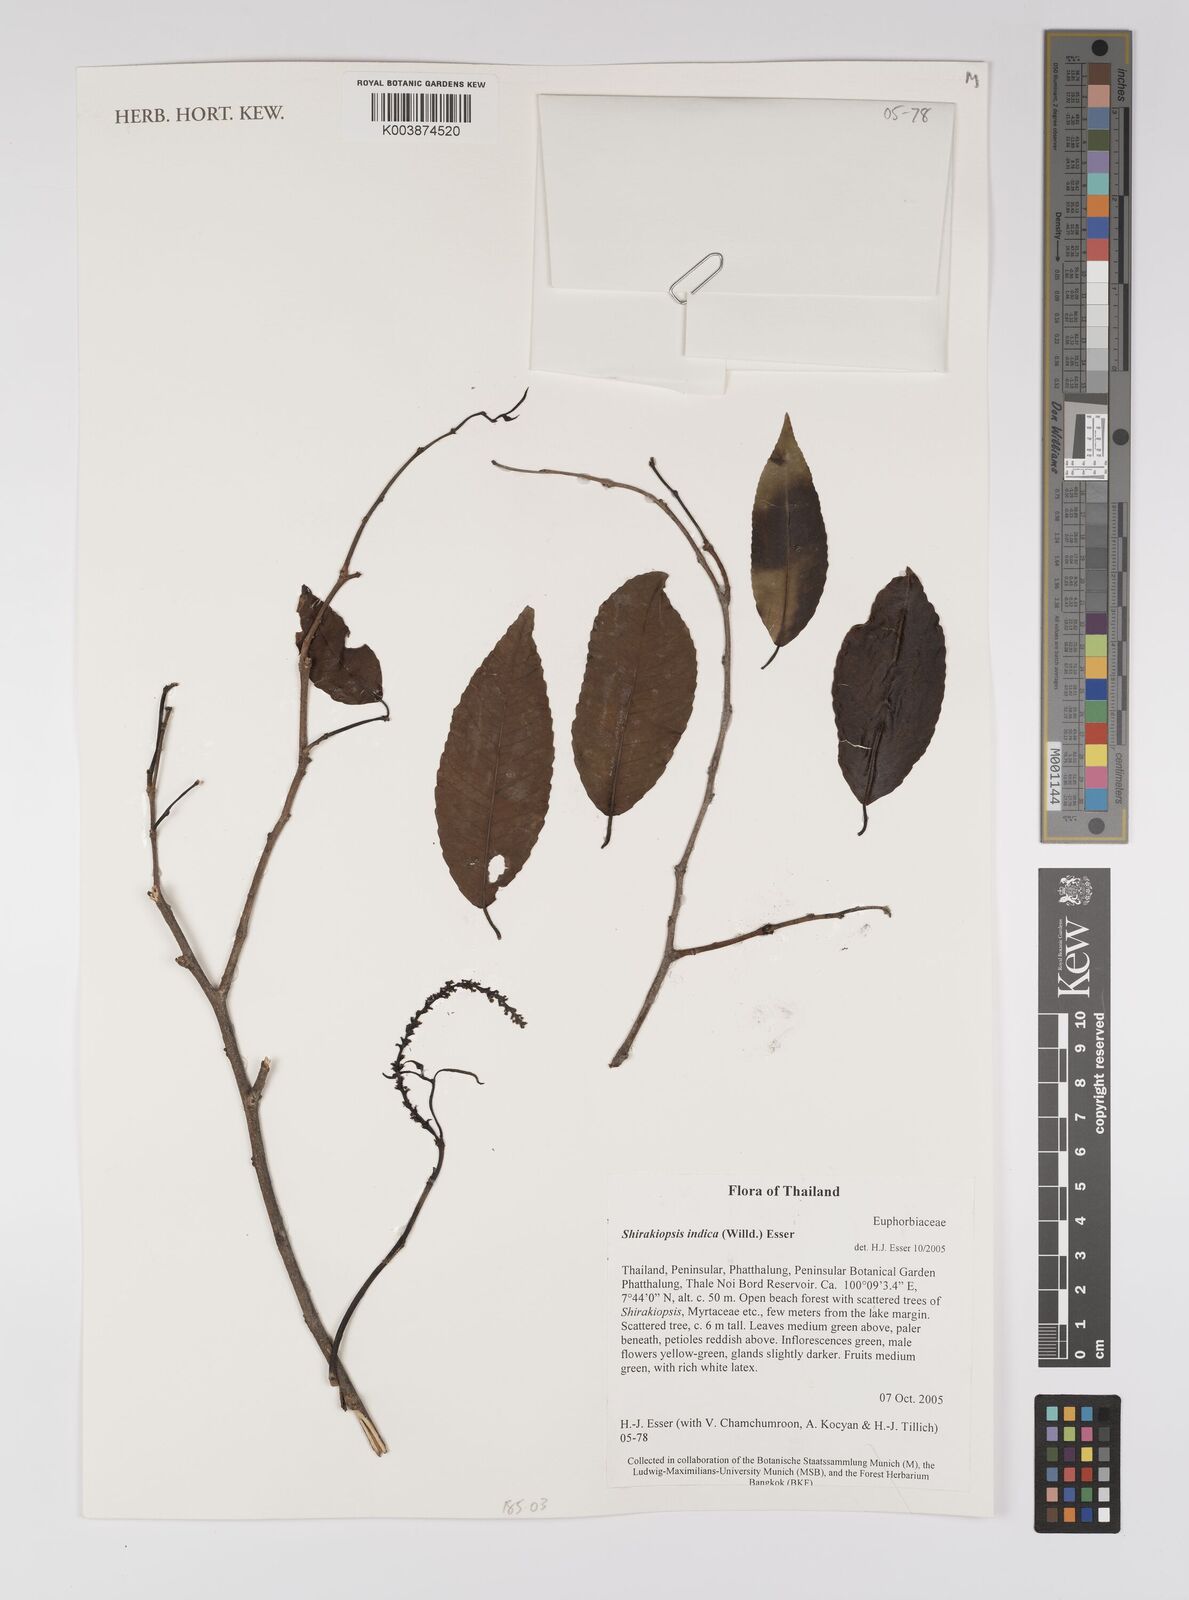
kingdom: Plantae
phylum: Tracheophyta
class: Magnoliopsida
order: Malpighiales
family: Euphorbiaceae
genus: Shirakiopsis
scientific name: Shirakiopsis indica
